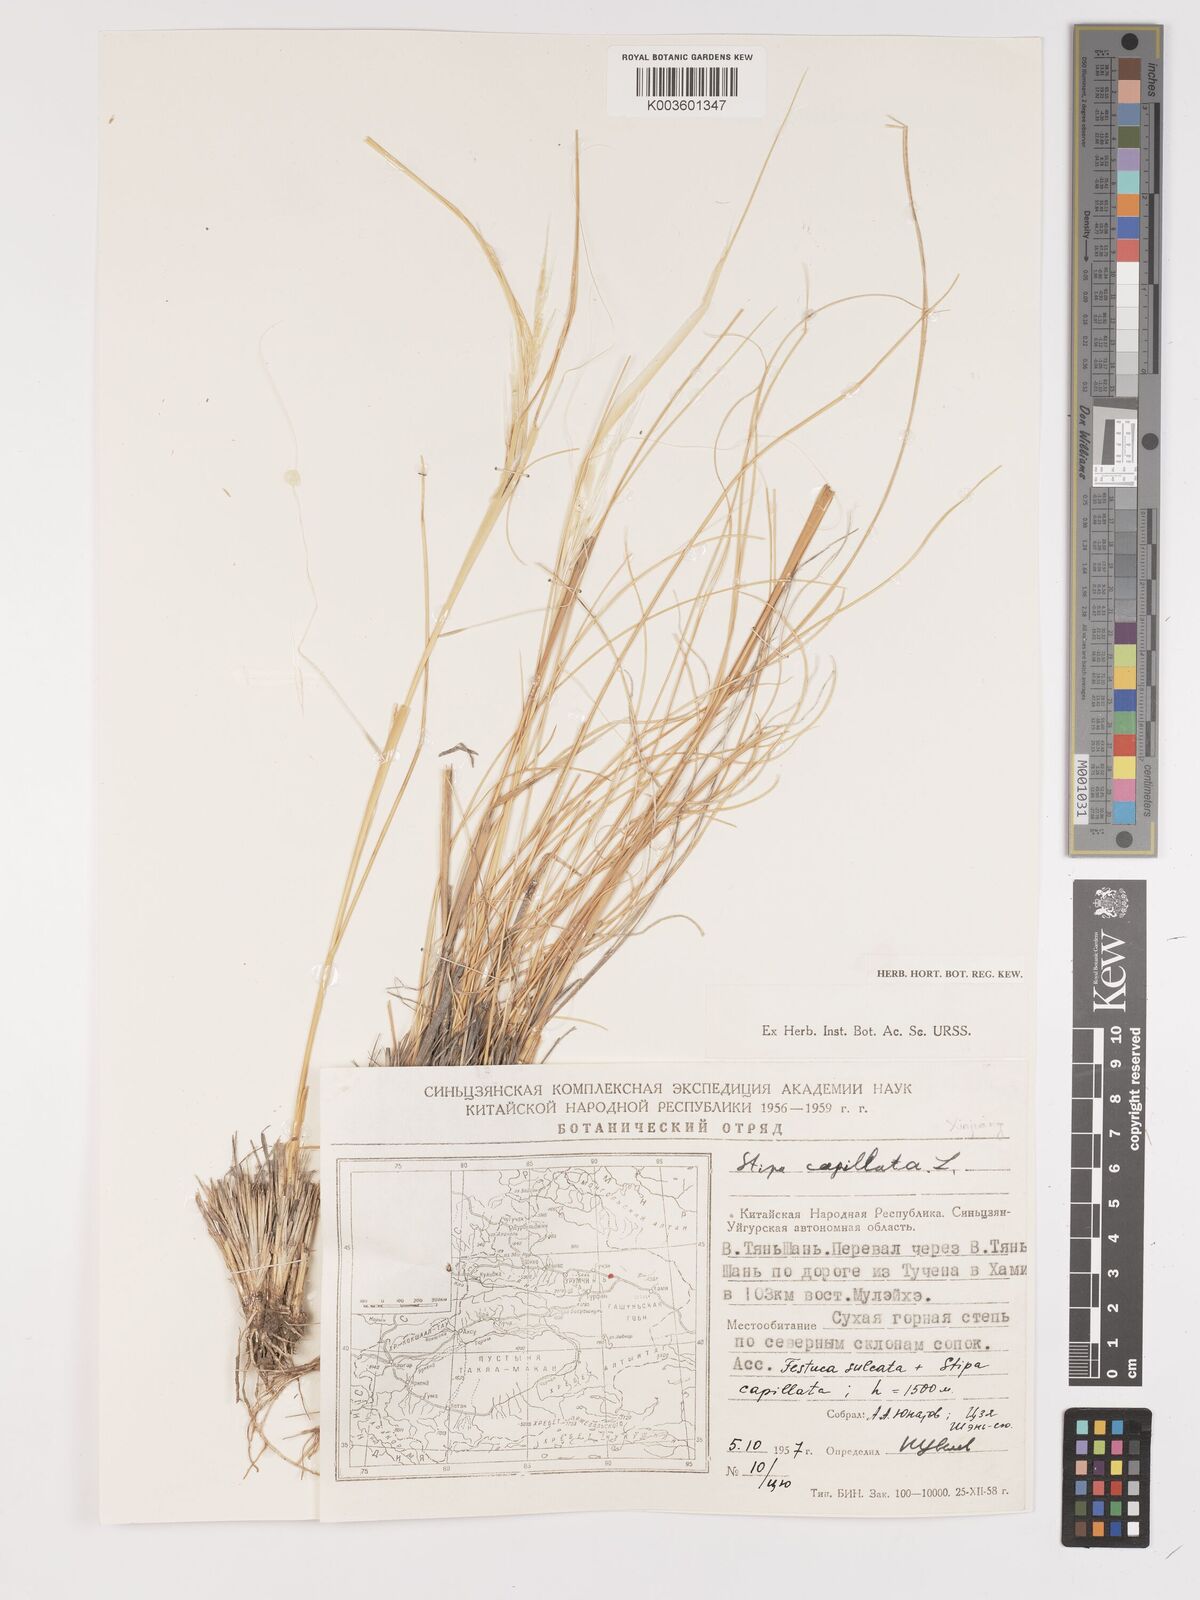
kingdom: Plantae
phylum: Tracheophyta
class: Liliopsida
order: Poales
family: Poaceae
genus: Stipa
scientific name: Stipa capillata
